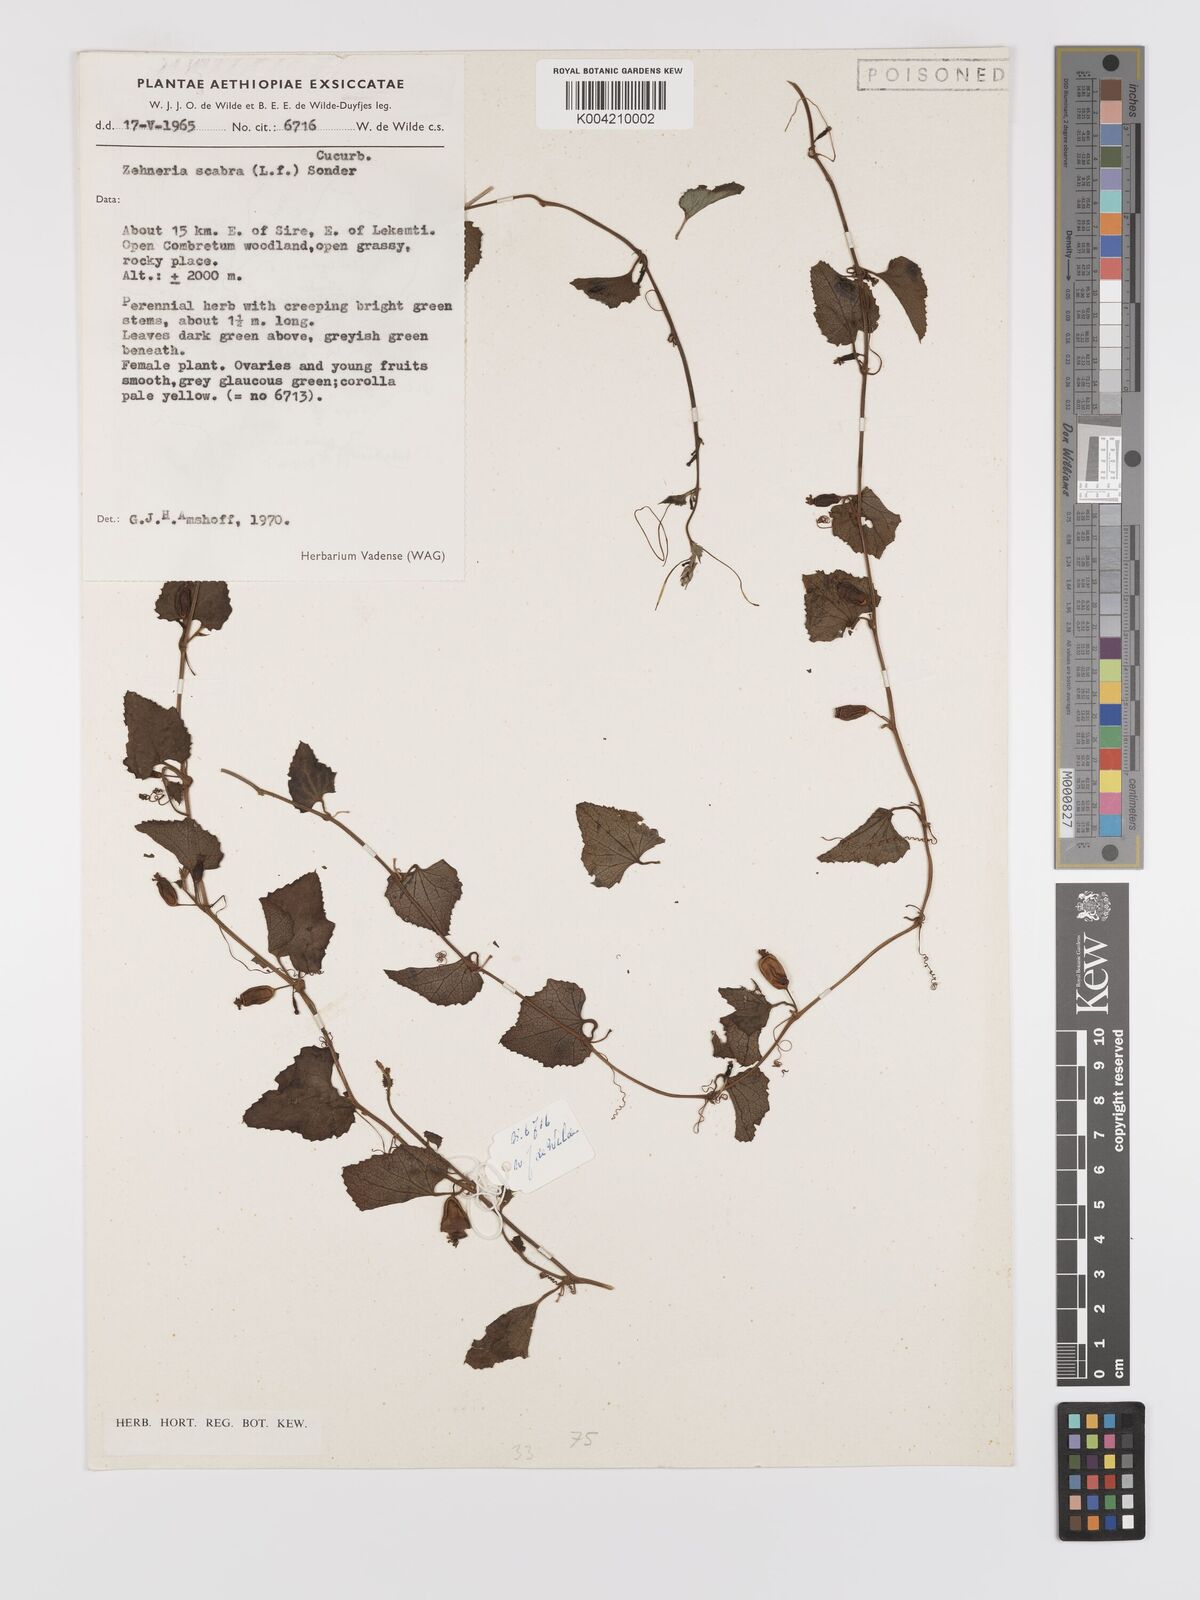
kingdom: Plantae
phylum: Tracheophyta
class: Magnoliopsida
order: Cucurbitales
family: Cucurbitaceae
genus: Zehneria
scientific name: Zehneria scabra
